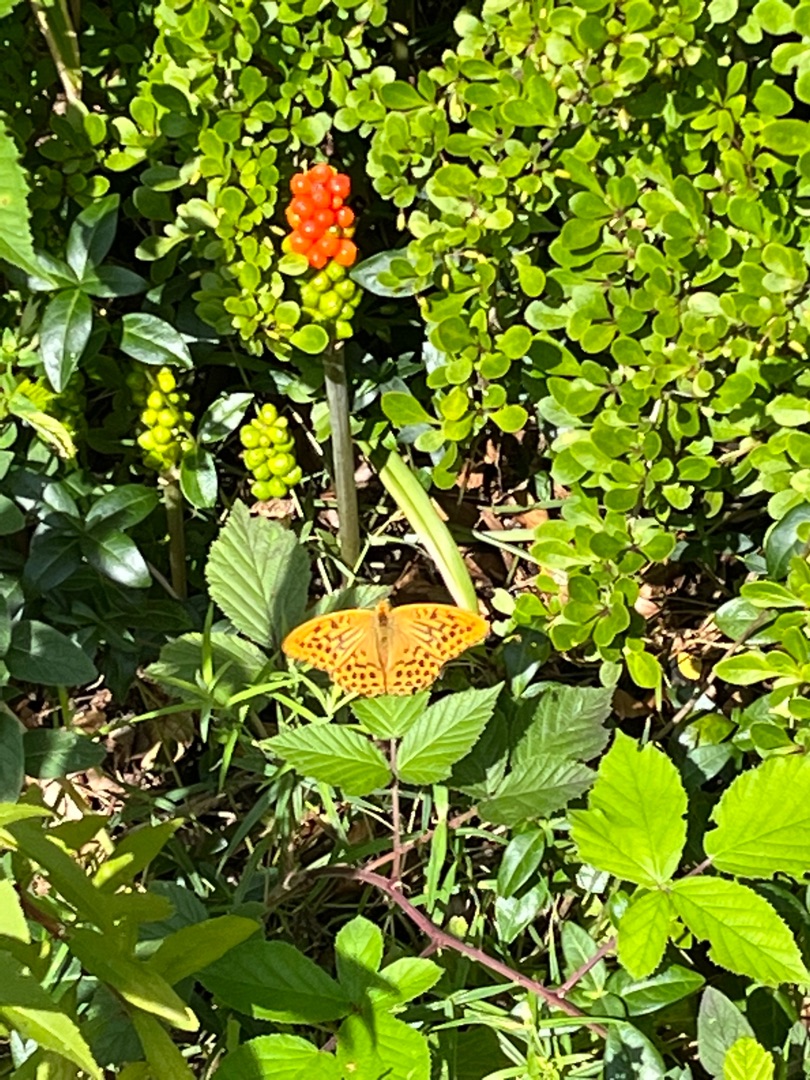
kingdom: Animalia
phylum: Arthropoda
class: Insecta
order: Lepidoptera
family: Nymphalidae
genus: Argynnis
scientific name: Argynnis paphia
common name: Kejserkåbe
